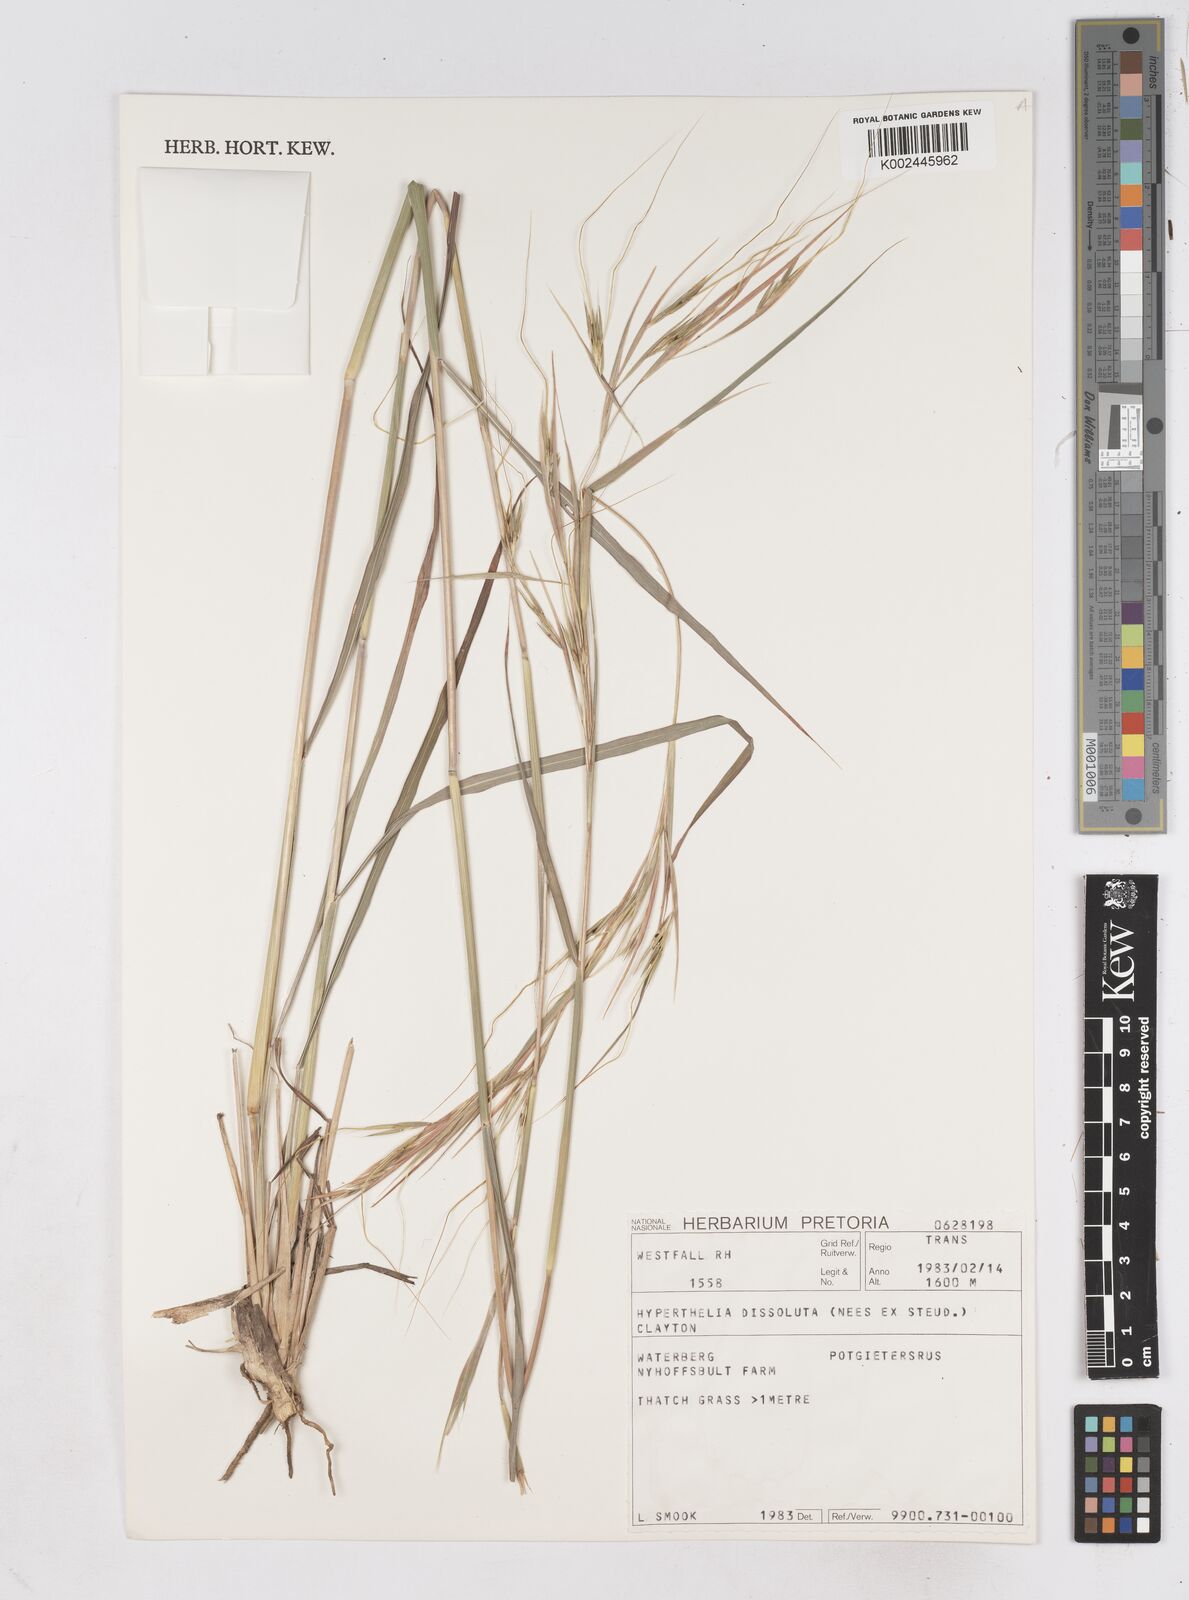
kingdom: Plantae
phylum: Tracheophyta
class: Liliopsida
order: Poales
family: Poaceae
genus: Hyperthelia
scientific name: Hyperthelia dissoluta
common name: Yellow thatching grass
